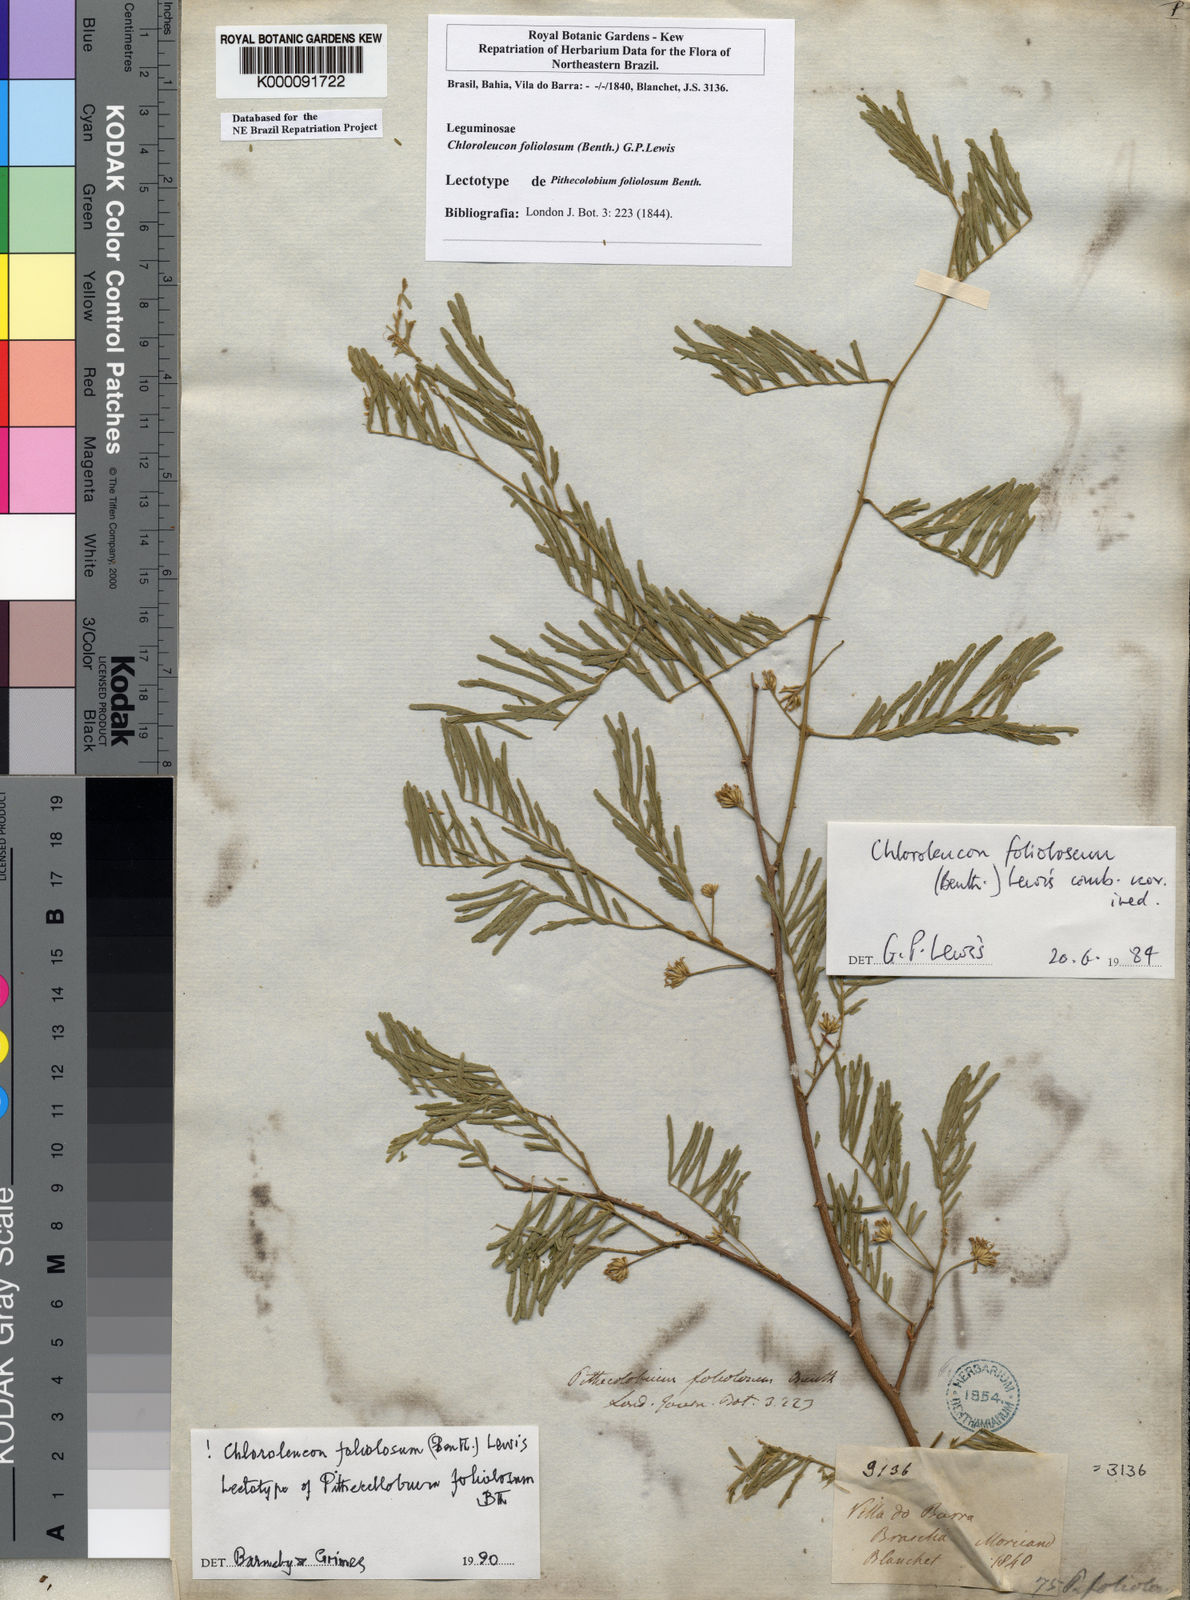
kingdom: Plantae
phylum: Tracheophyta
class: Magnoliopsida
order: Fabales
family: Fabaceae
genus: Chloroleucon
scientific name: Chloroleucon foliolosum
